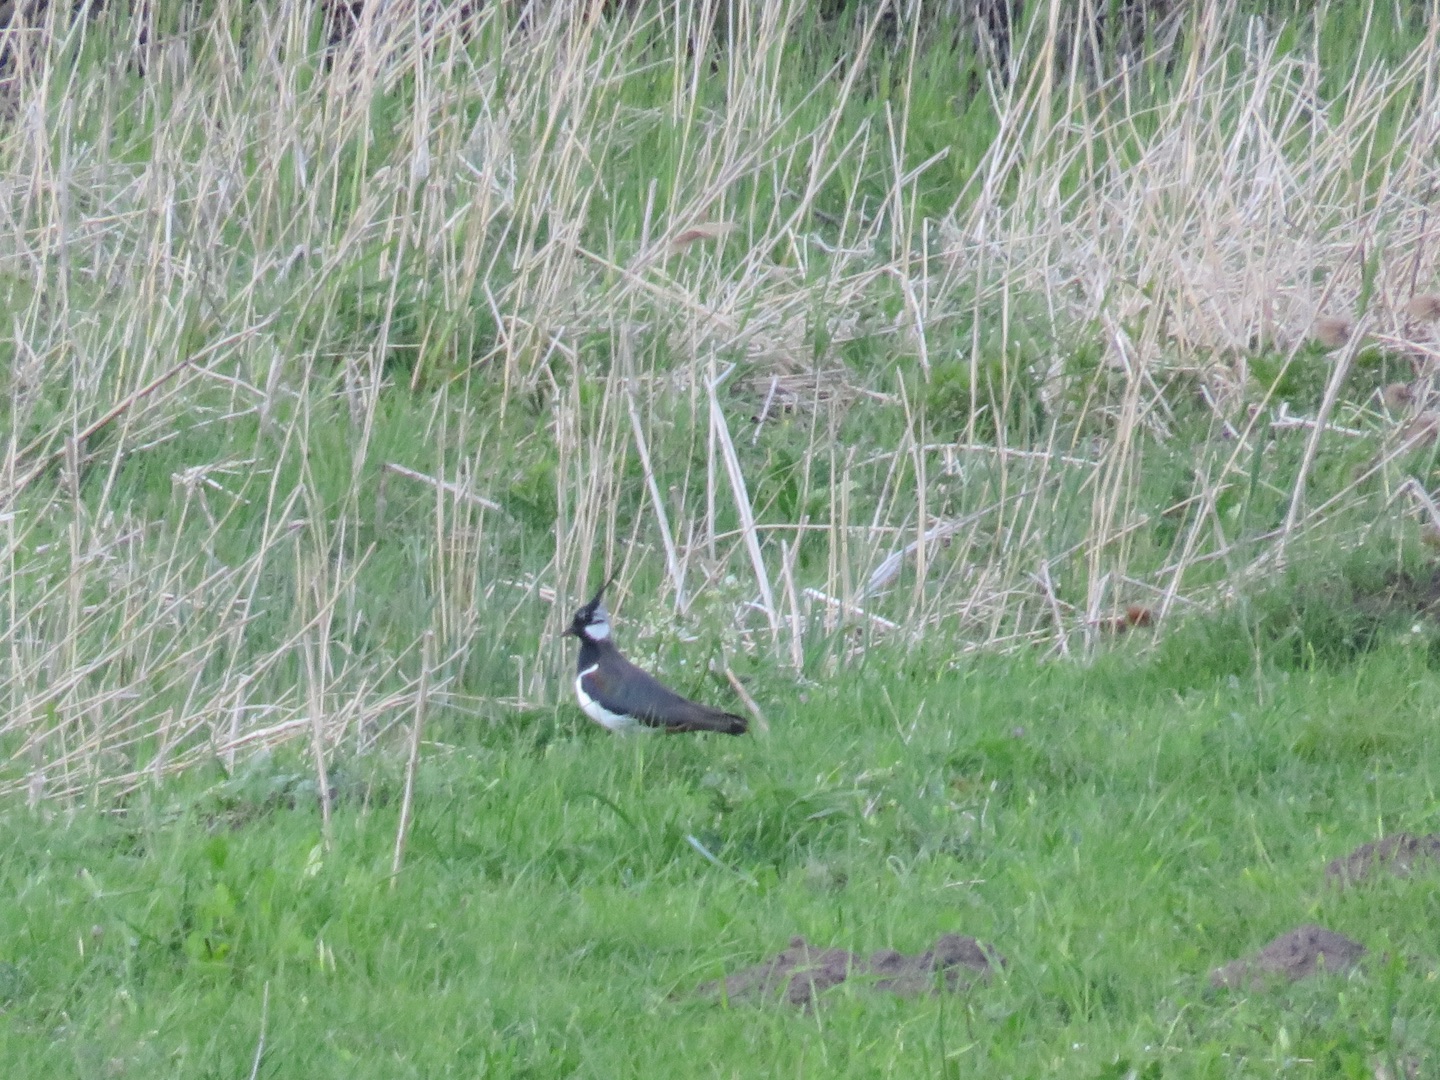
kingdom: Animalia
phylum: Chordata
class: Aves
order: Charadriiformes
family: Charadriidae
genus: Vanellus
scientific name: Vanellus vanellus
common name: Vibe
